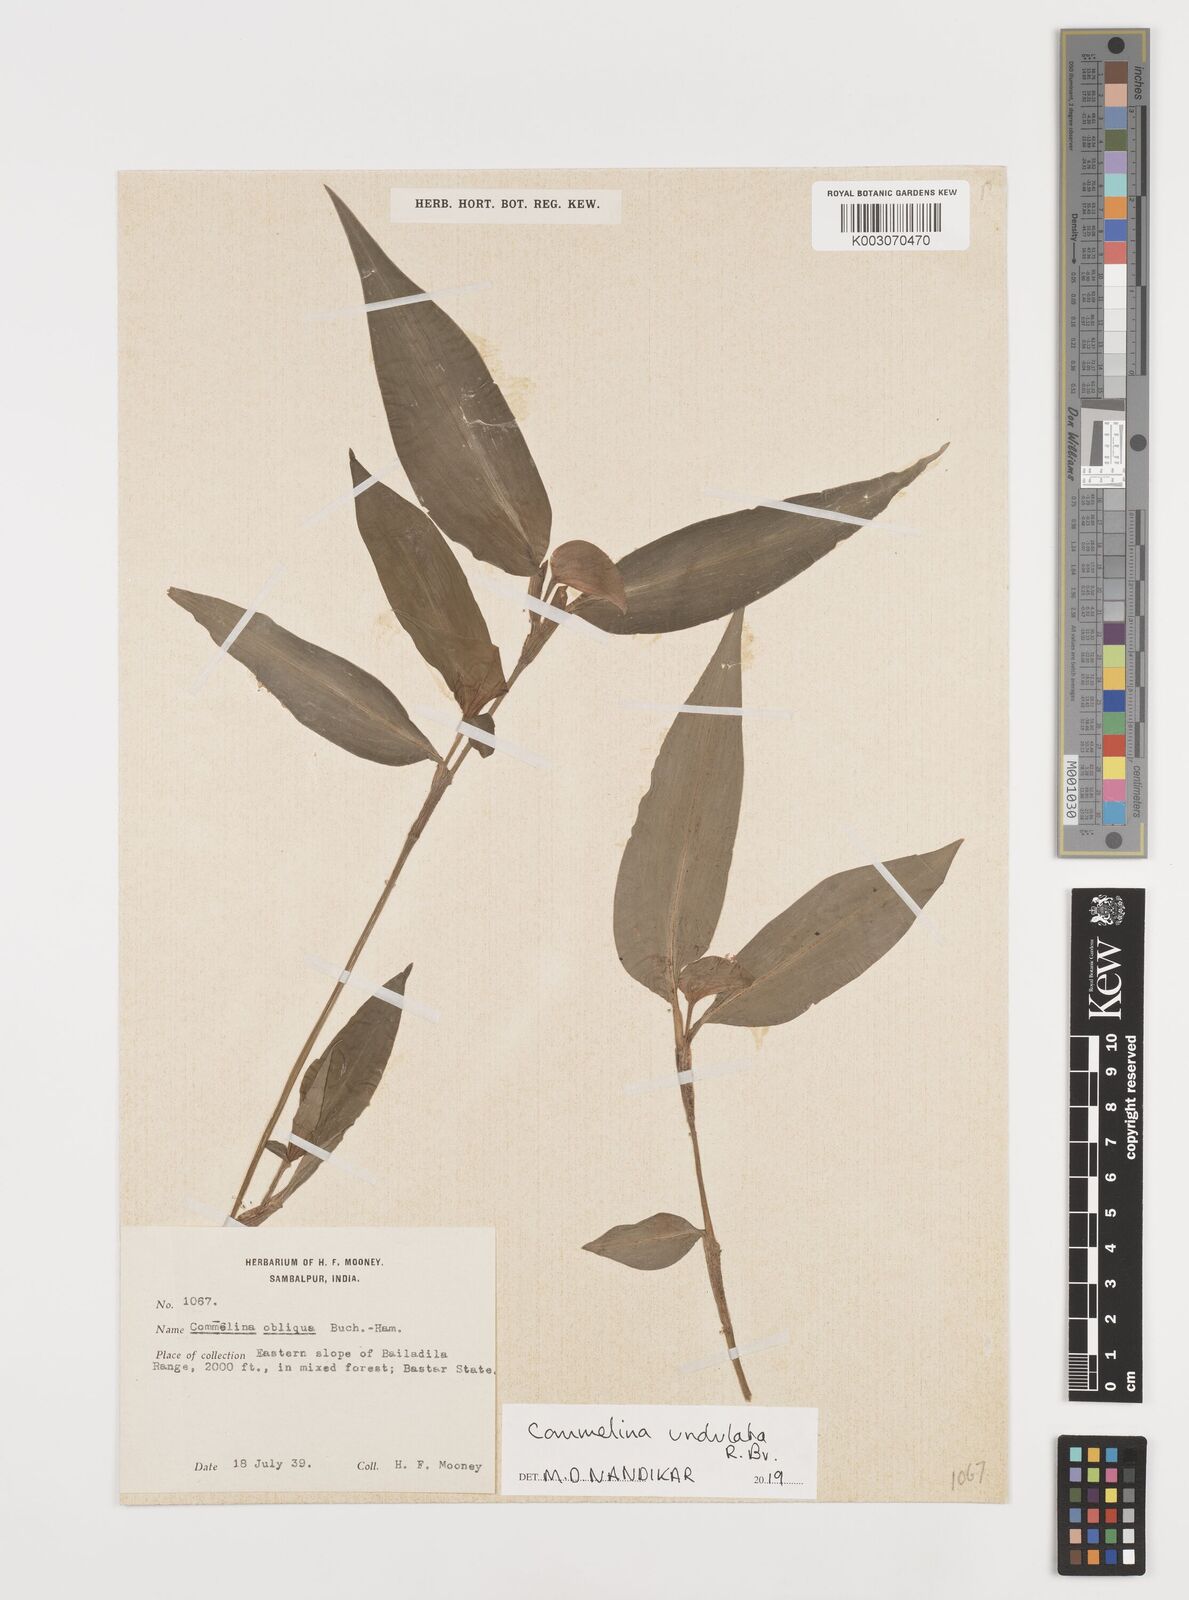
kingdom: Plantae
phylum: Tracheophyta
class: Liliopsida
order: Commelinales
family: Commelinaceae
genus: Commelina
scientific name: Commelina undulata
